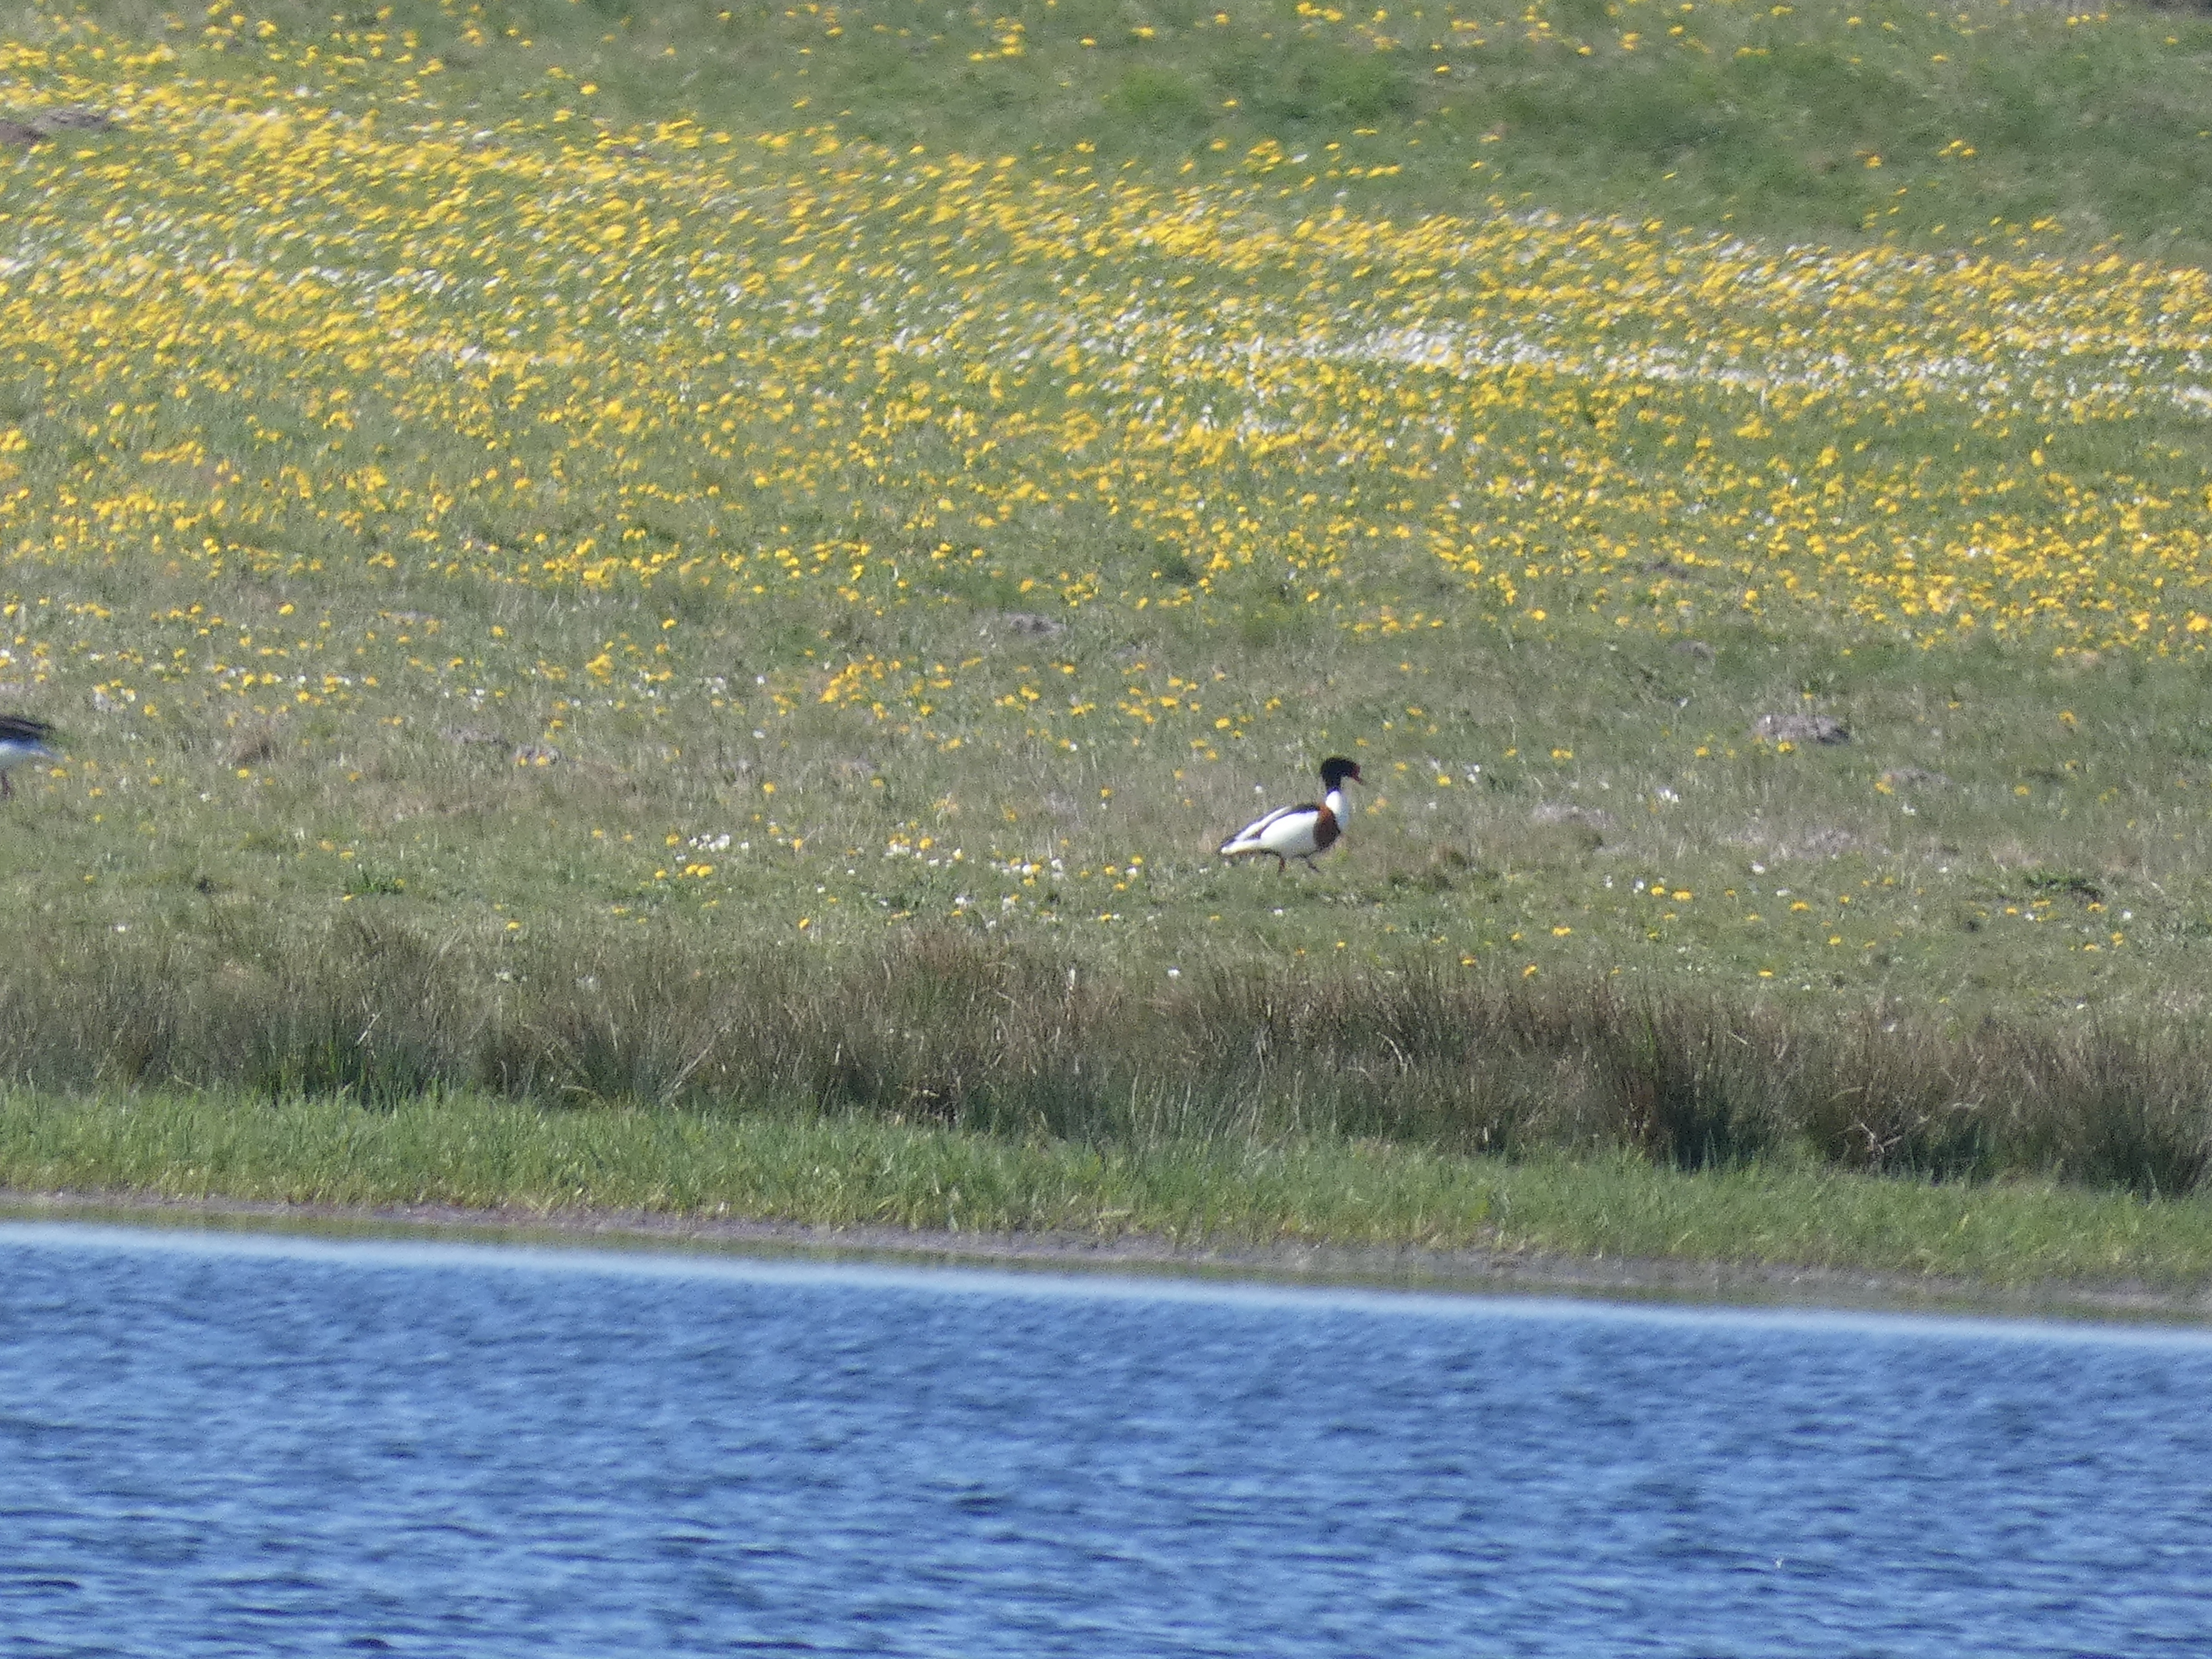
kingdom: Animalia
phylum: Chordata
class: Aves
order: Anseriformes
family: Anatidae
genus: Tadorna
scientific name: Tadorna tadorna
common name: Gravand
